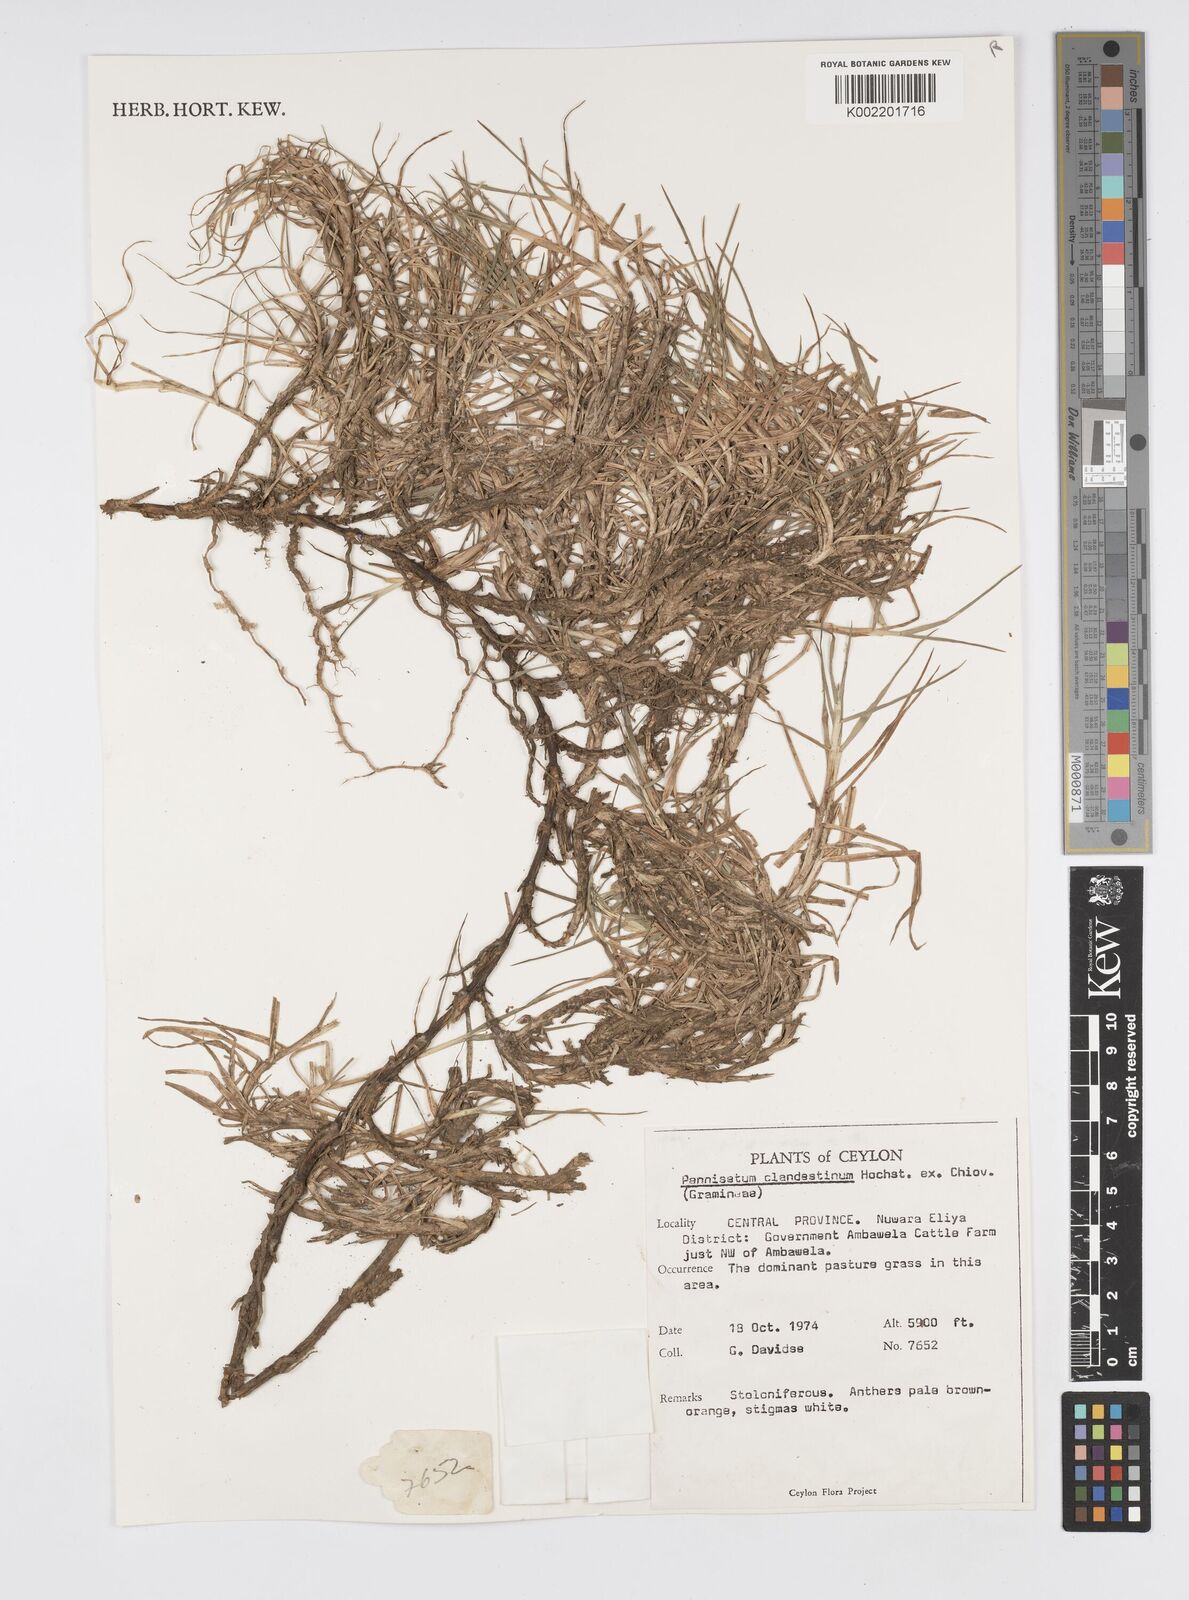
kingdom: Plantae
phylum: Tracheophyta
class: Liliopsida
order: Poales
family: Poaceae
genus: Cenchrus
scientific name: Cenchrus clandestinus
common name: Kikuyugrass
